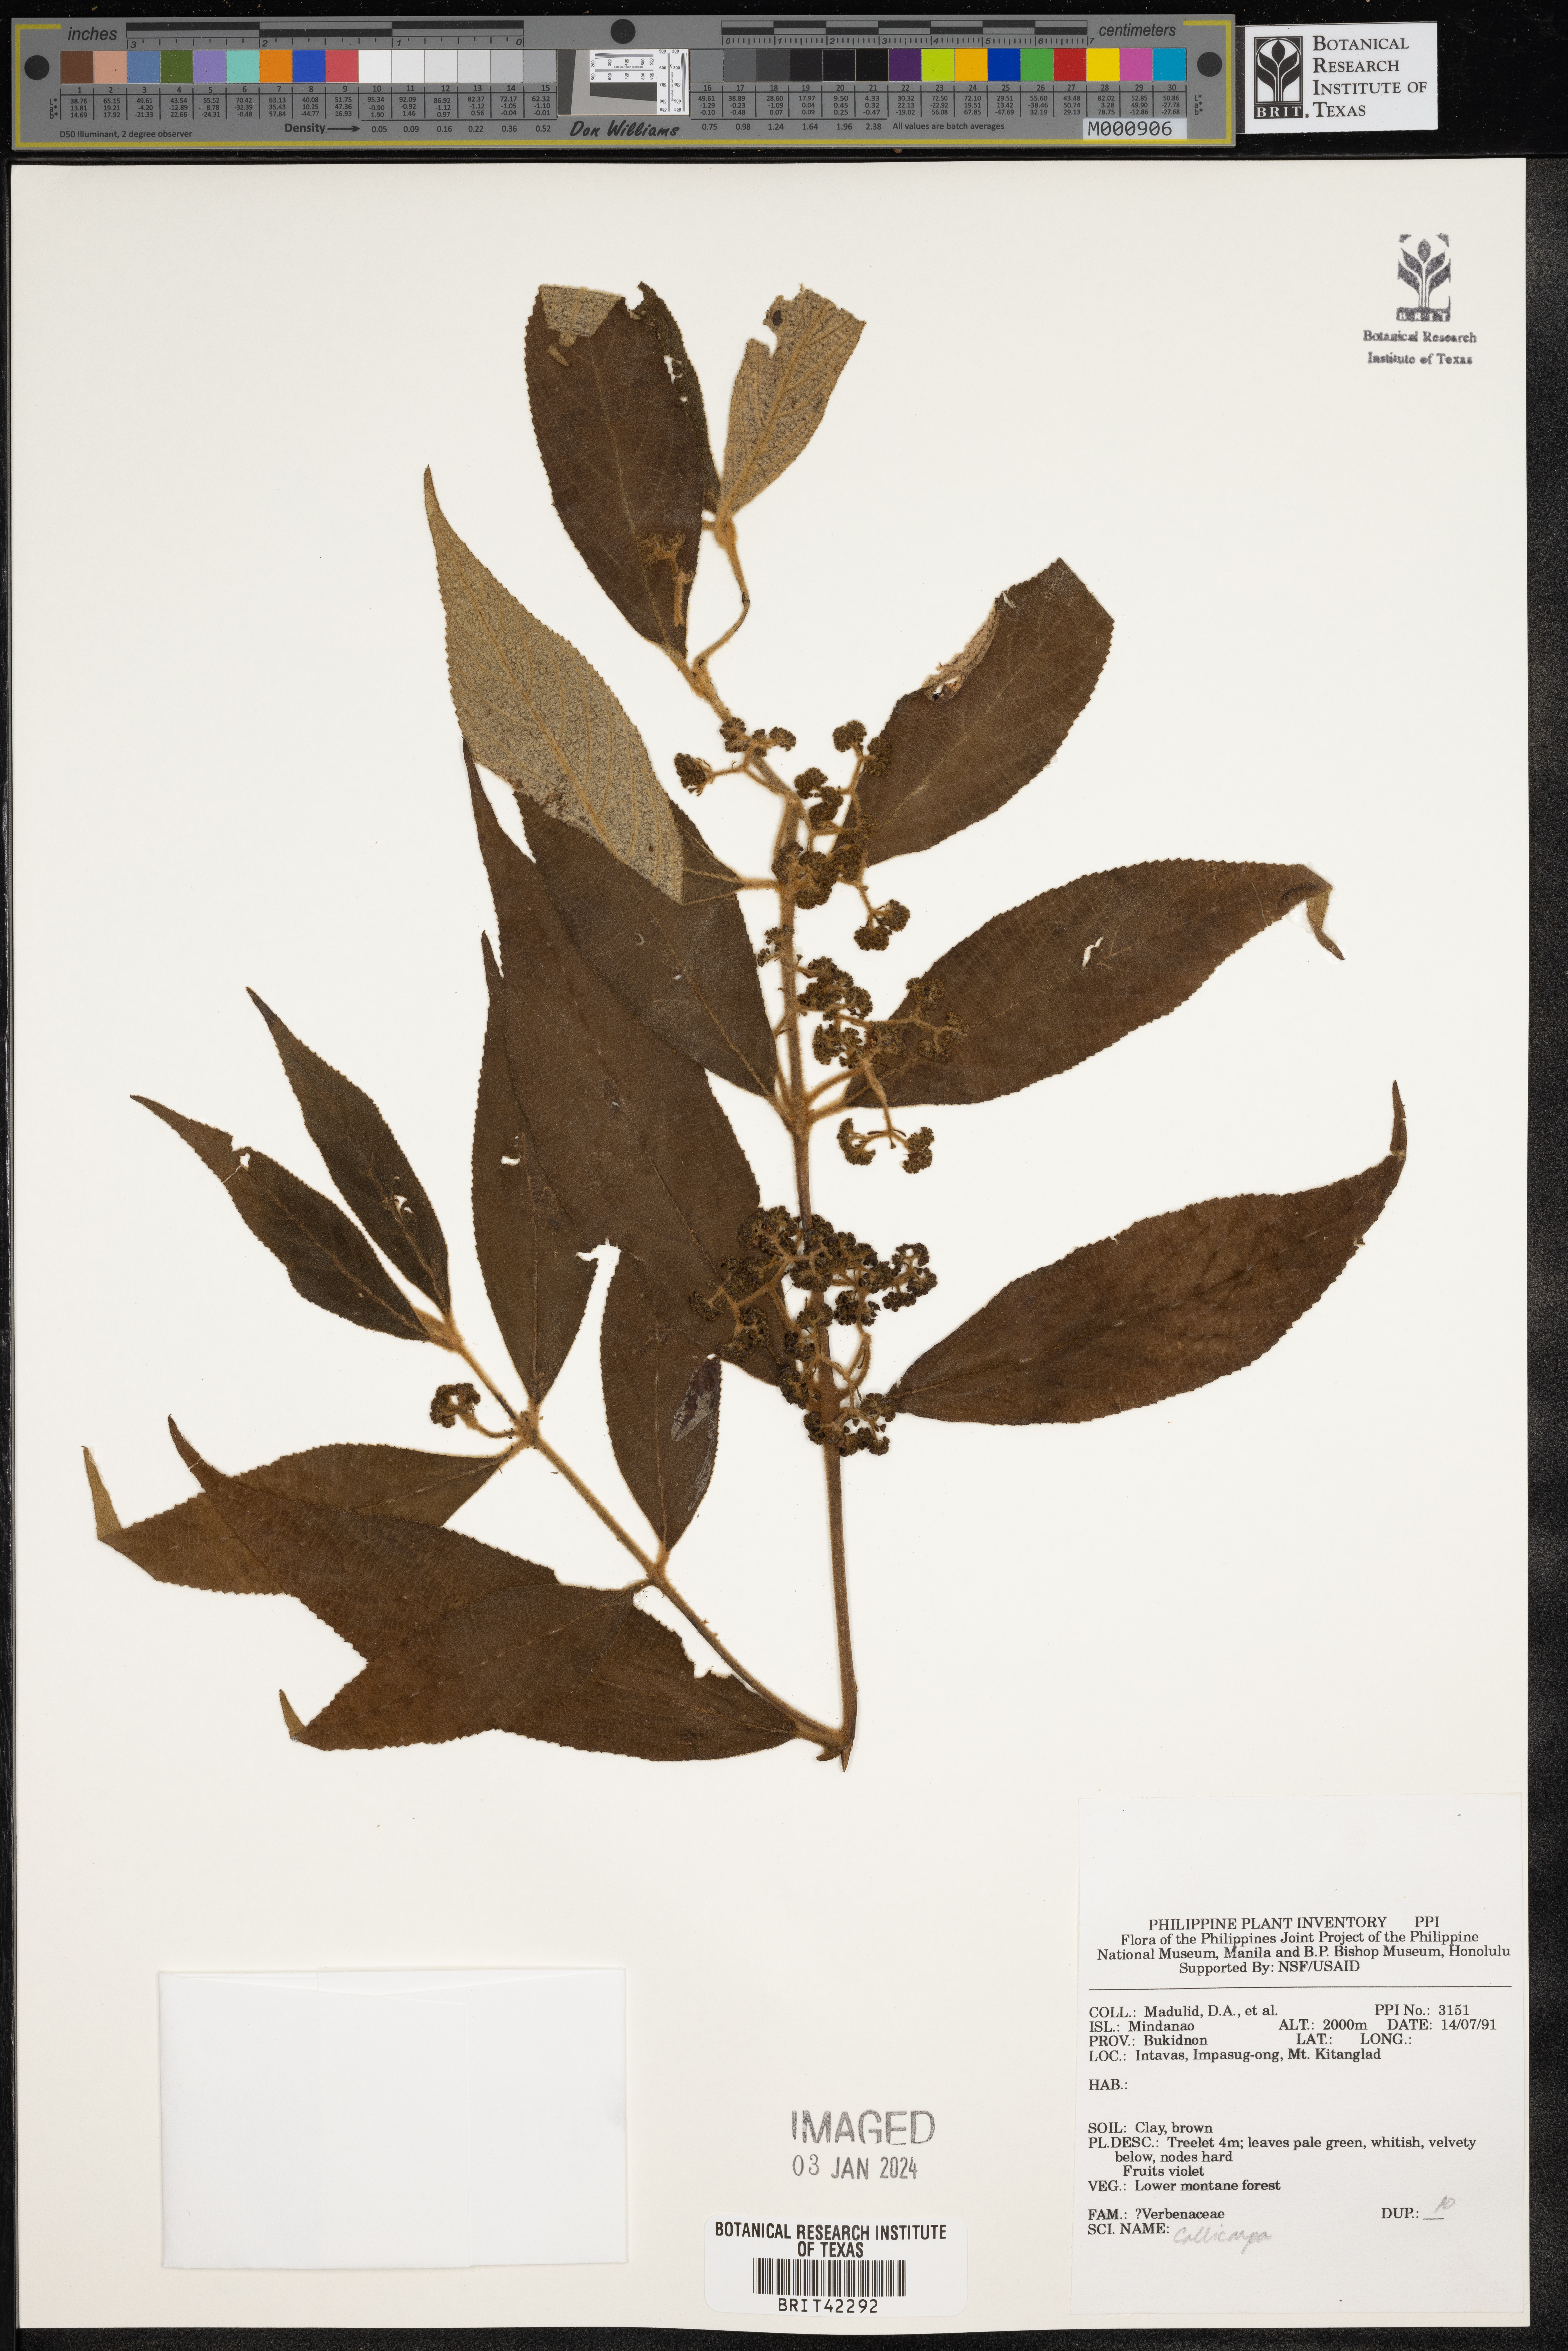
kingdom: Plantae
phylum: Tracheophyta
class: Magnoliopsida
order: Lamiales
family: Lamiaceae
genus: Callicarpa
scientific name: Callicarpa
